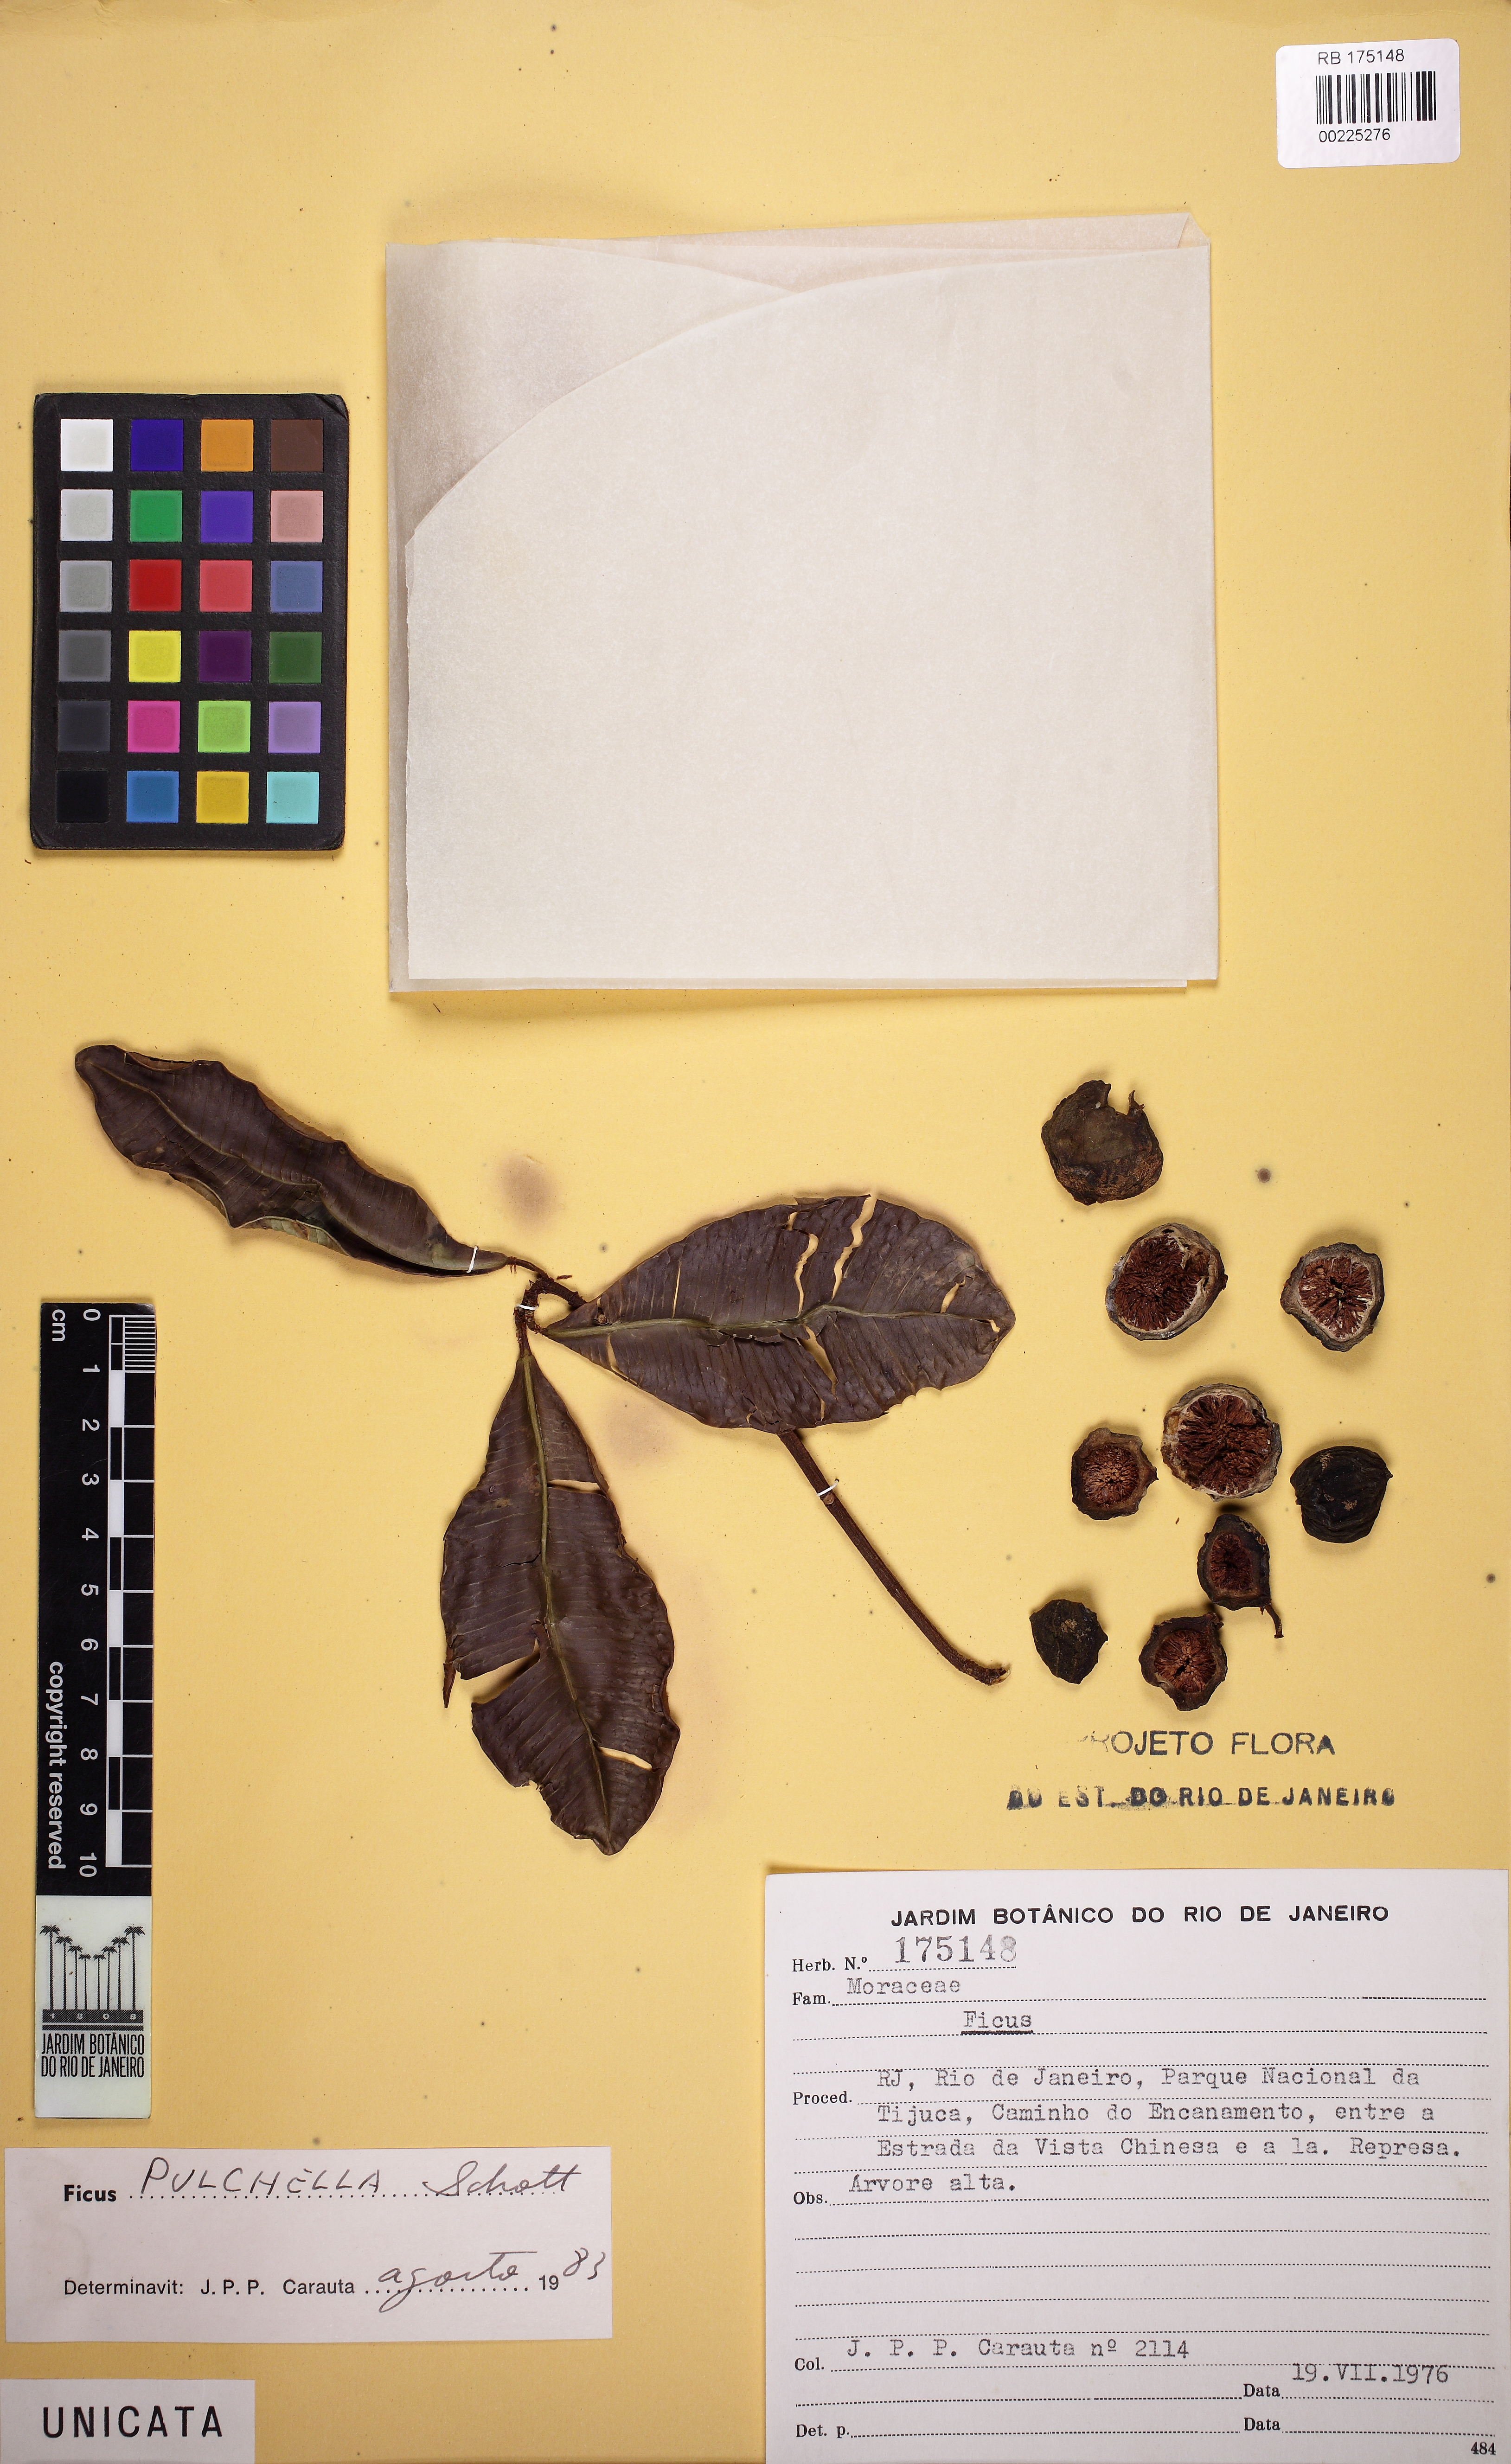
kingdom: Plantae
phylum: Tracheophyta
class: Magnoliopsida
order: Rosales
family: Moraceae
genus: Ficus
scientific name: Ficus pulchella
